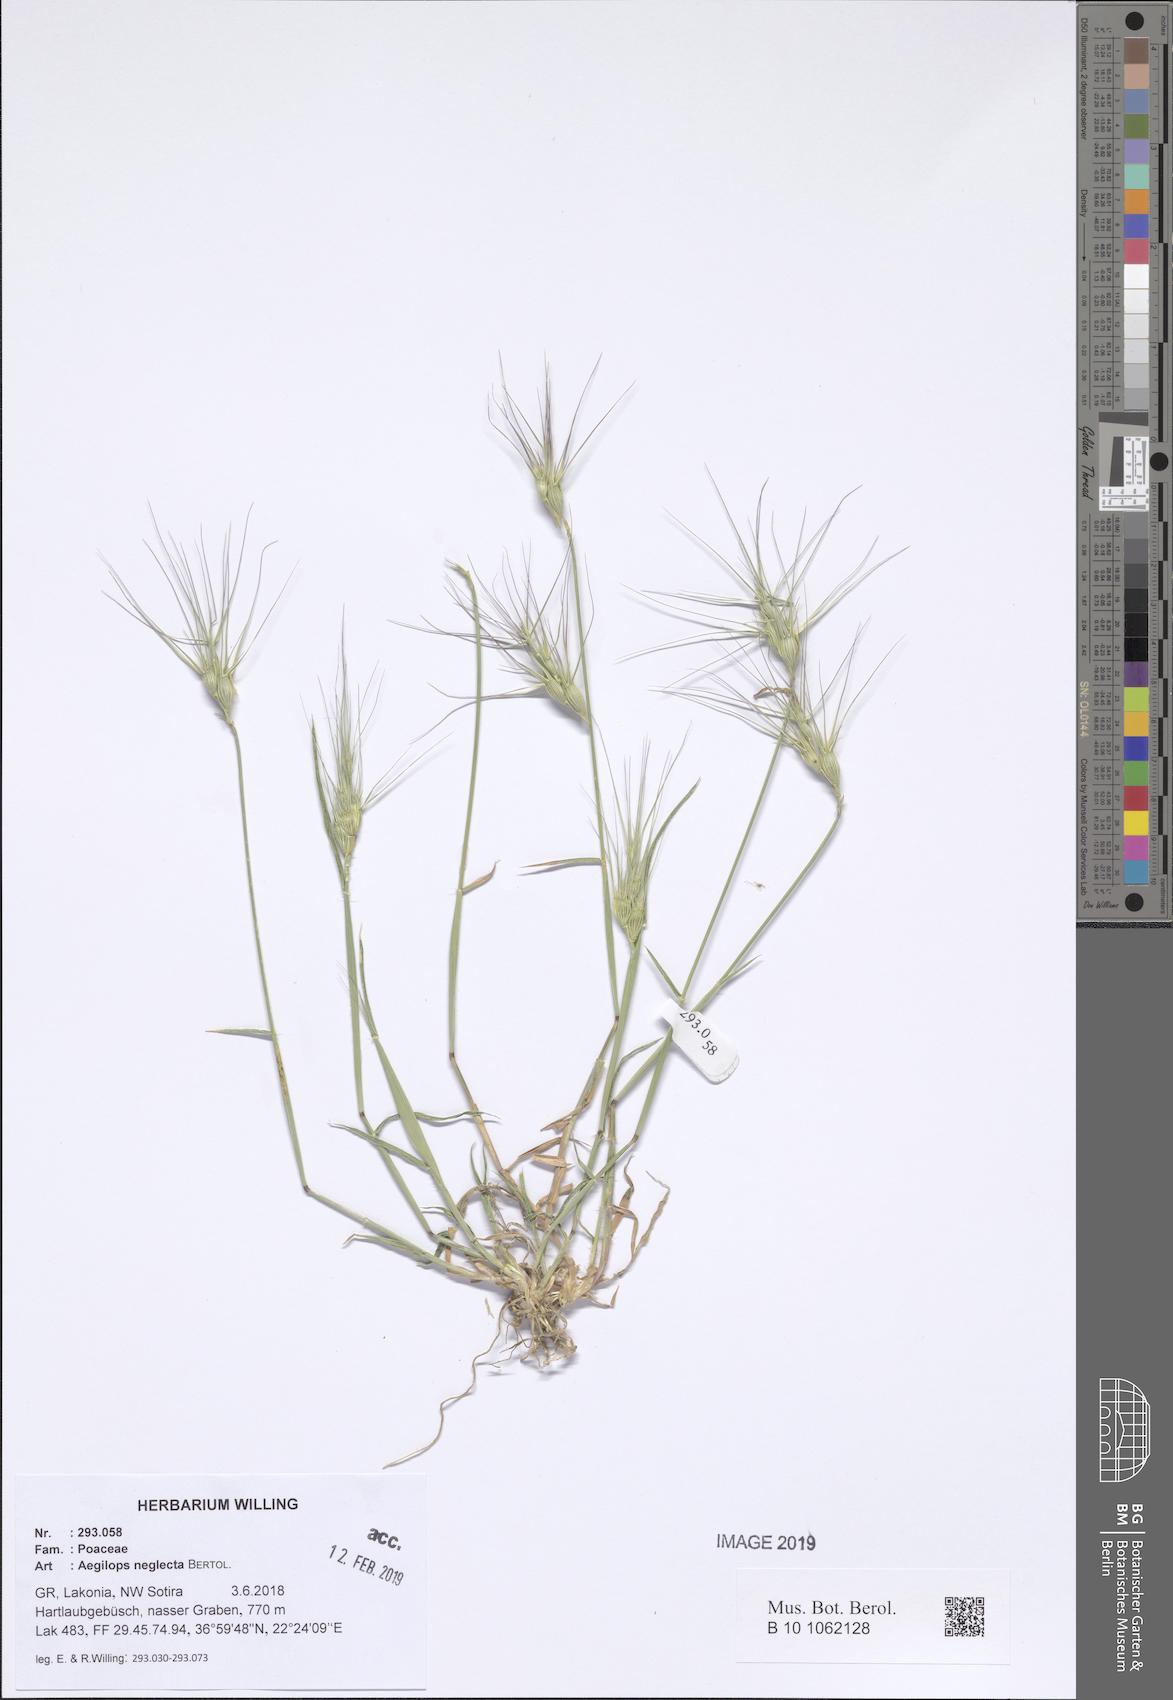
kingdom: Plantae
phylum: Tracheophyta
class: Liliopsida
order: Poales
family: Poaceae
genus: Aegilops
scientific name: Aegilops neglecta
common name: Three-awn goat grass
